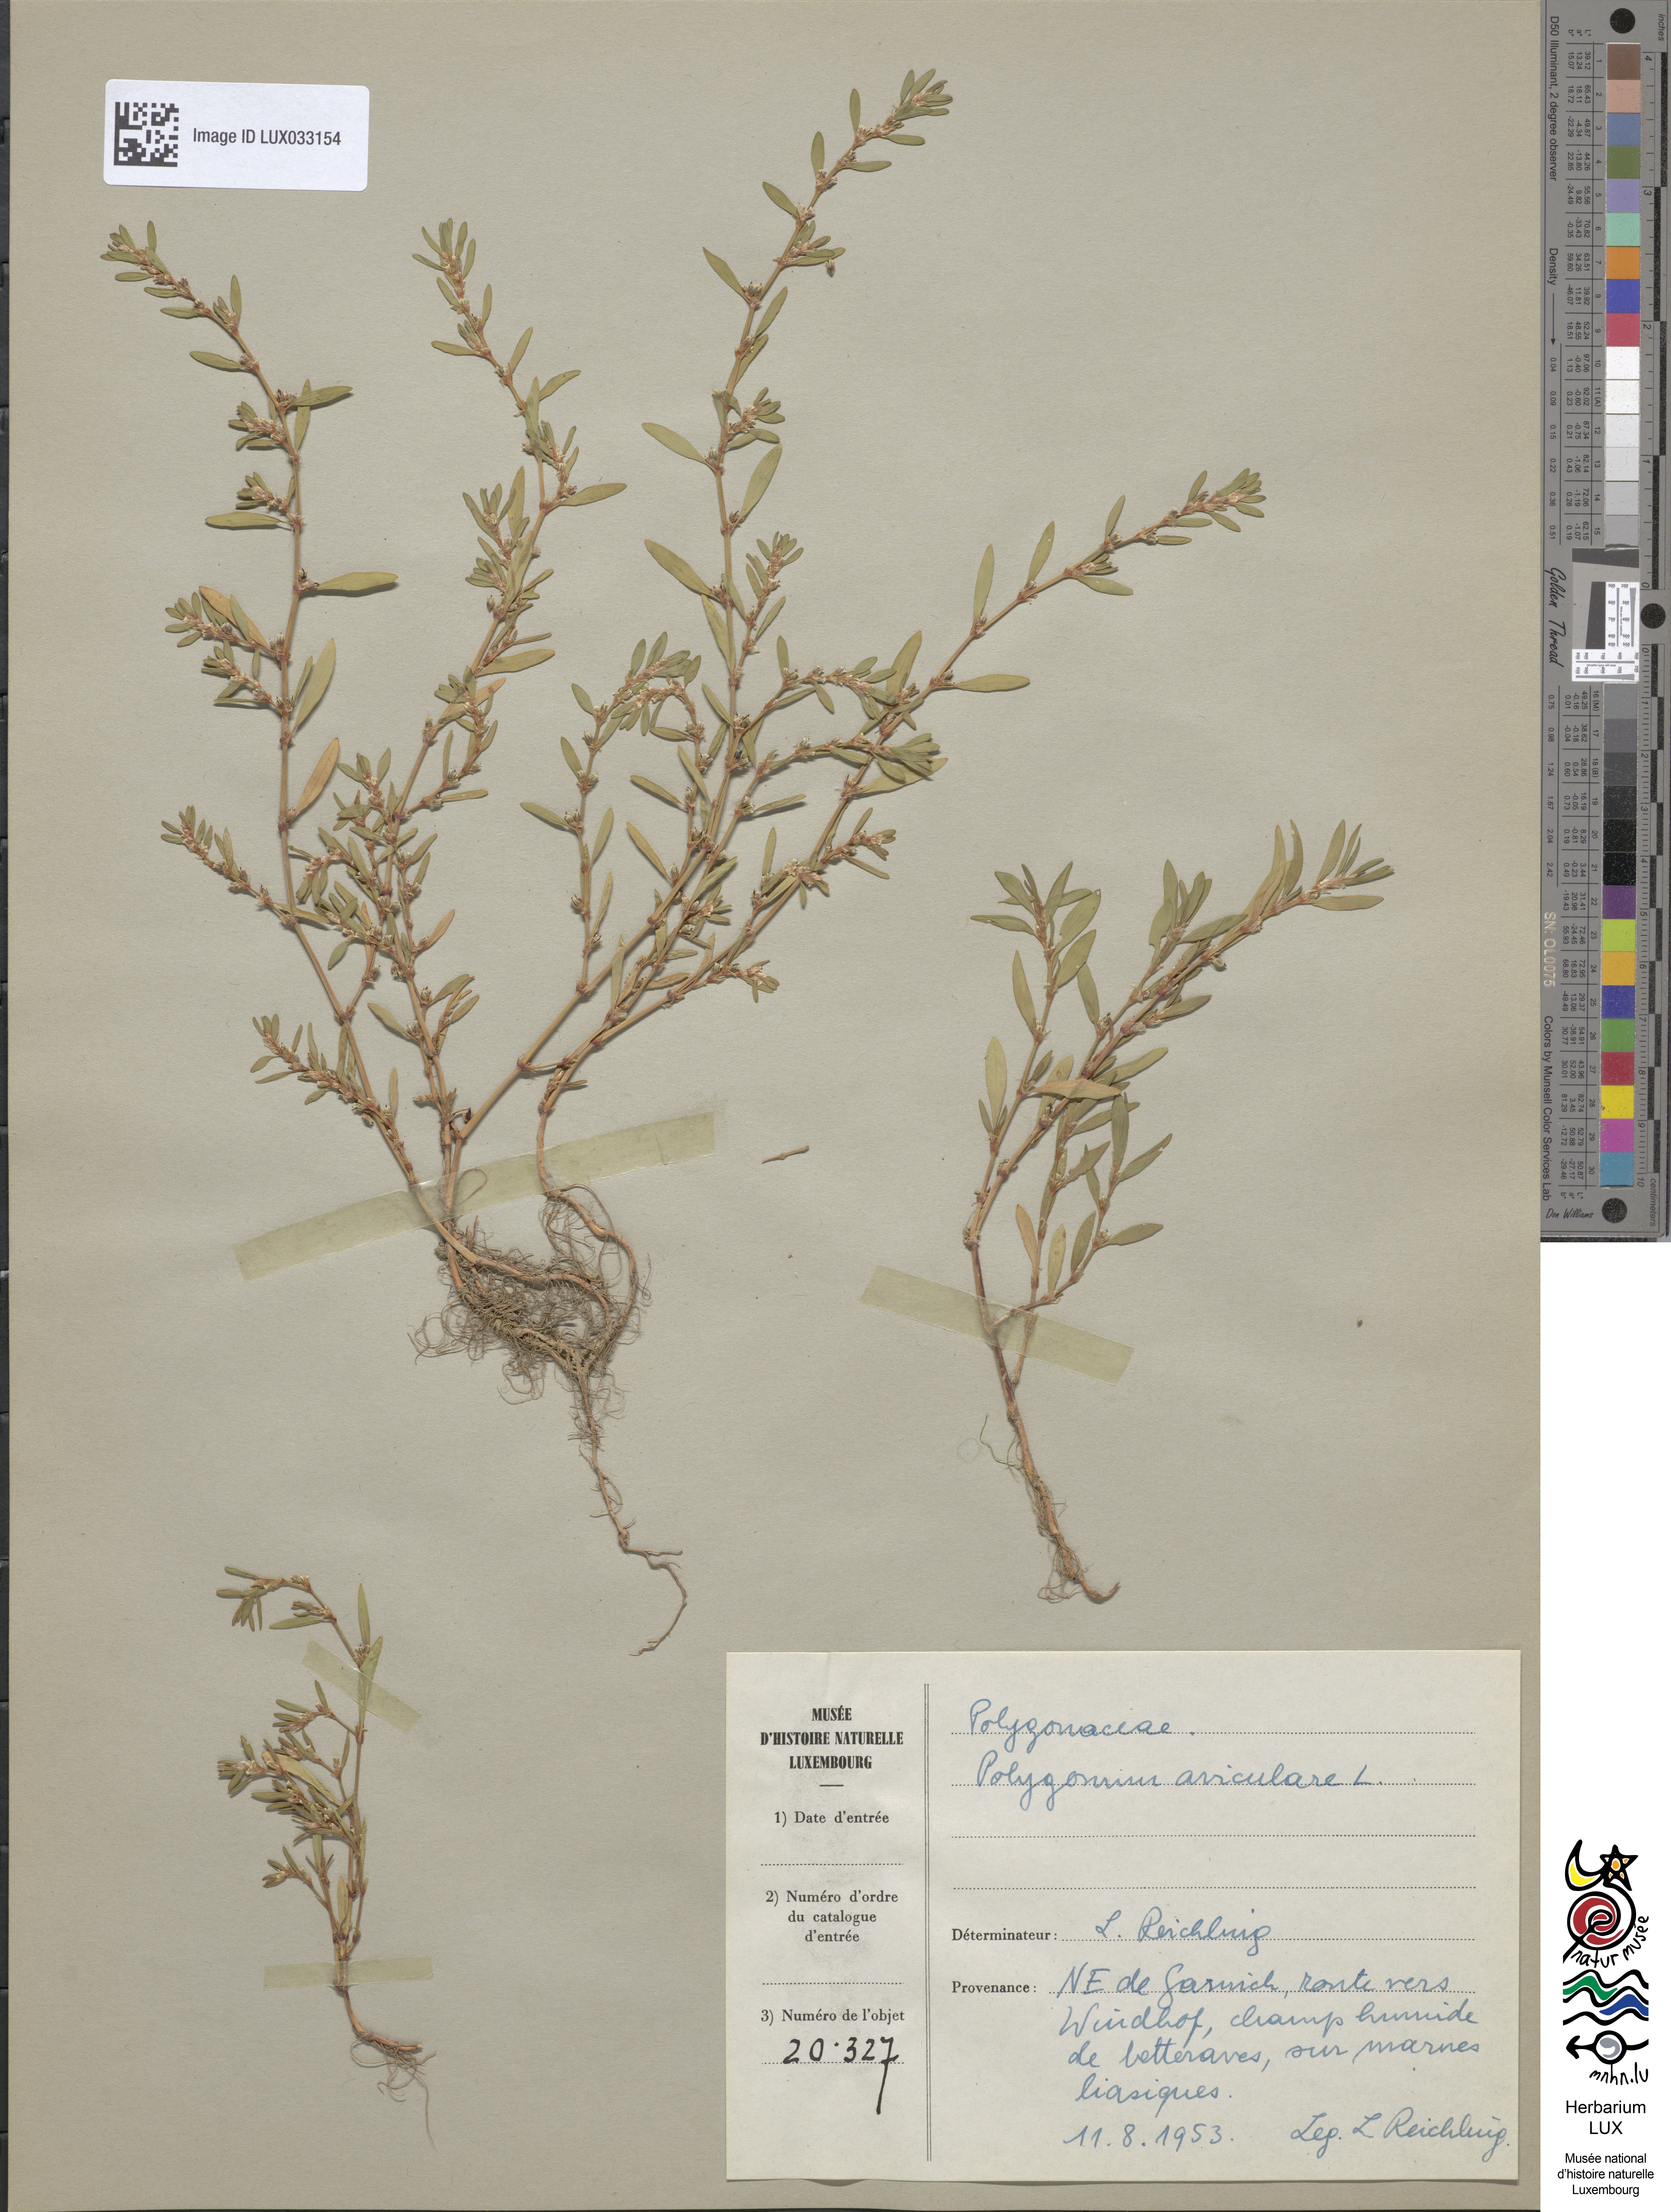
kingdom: Plantae
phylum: Tracheophyta
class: Magnoliopsida
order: Caryophyllales
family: Polygonaceae
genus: Polygonum
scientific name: Polygonum aviculare
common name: Prostrate knotweed
